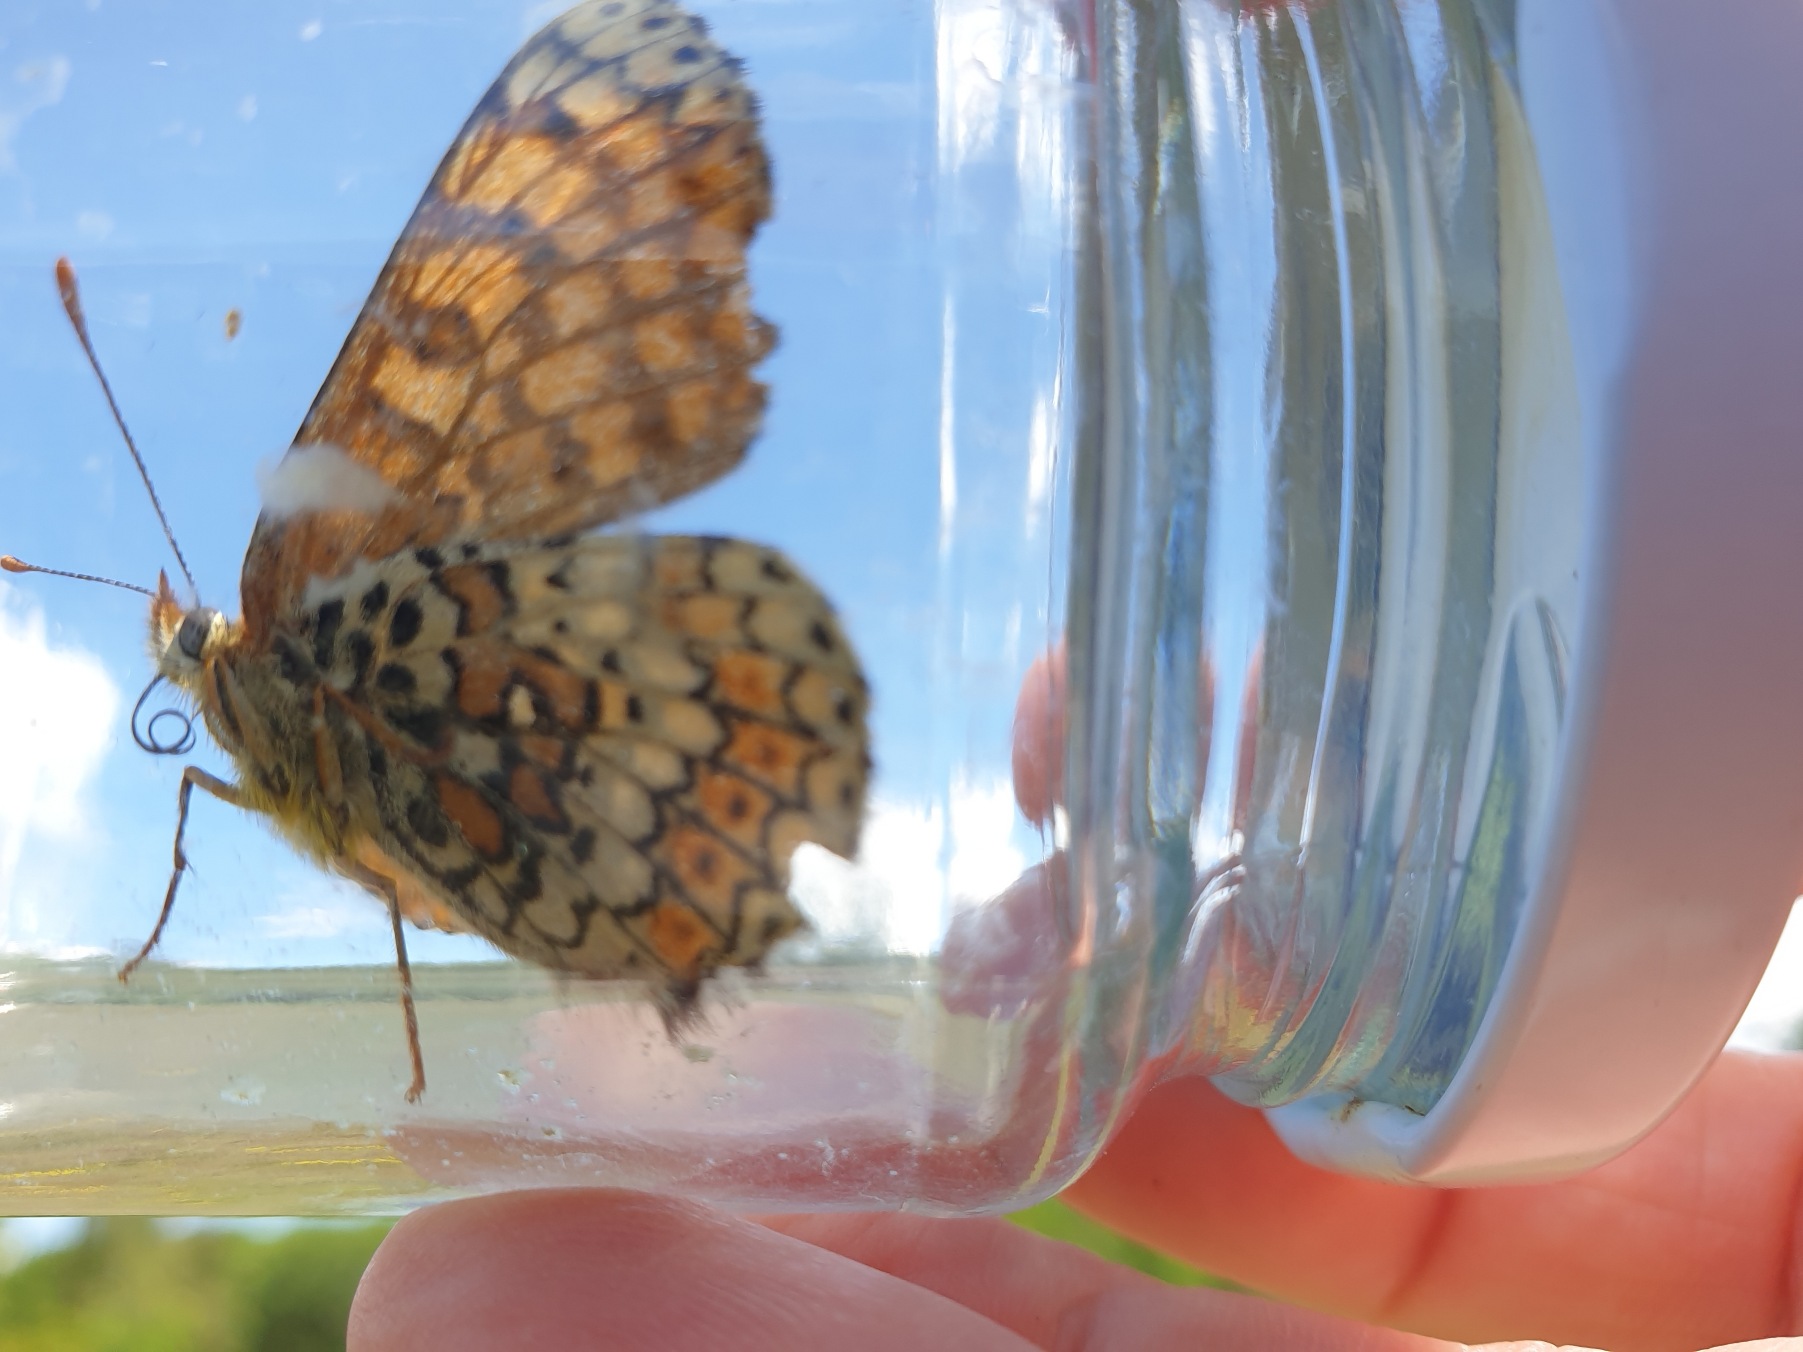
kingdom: Animalia
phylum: Arthropoda
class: Insecta
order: Lepidoptera
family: Nymphalidae
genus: Melitaea
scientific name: Melitaea cinxia
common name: Okkergul pletvinge
